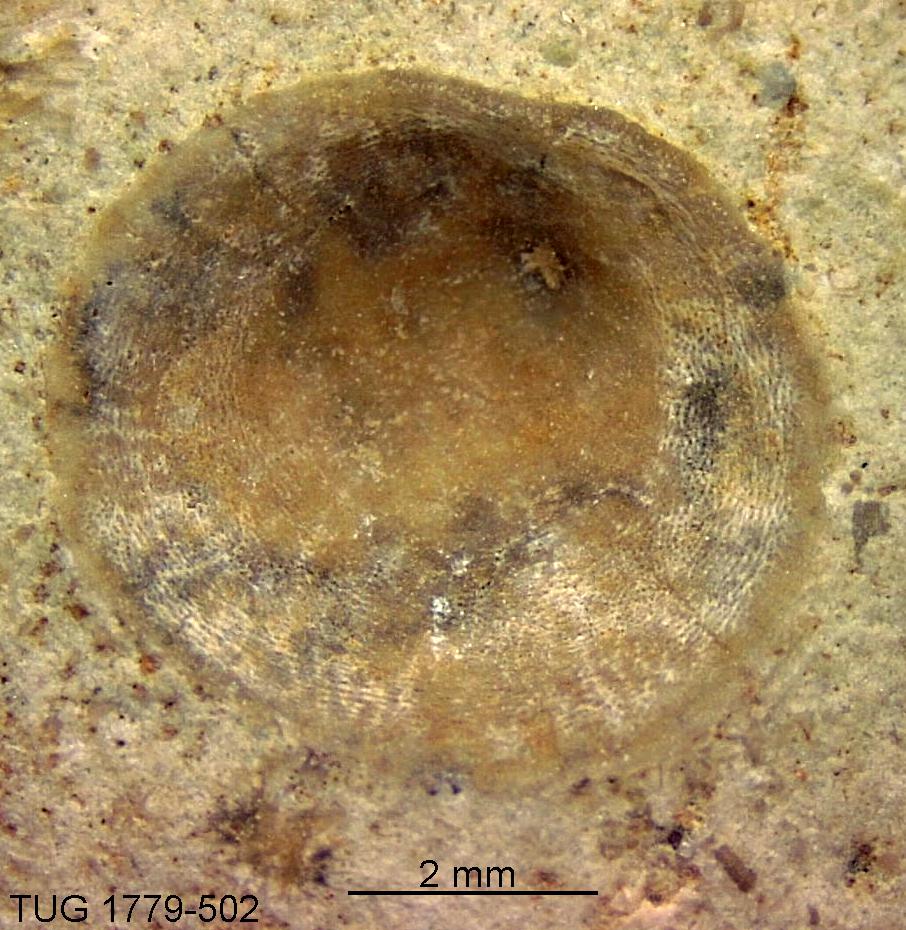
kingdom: Animalia
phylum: Brachiopoda
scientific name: Brachiopoda
